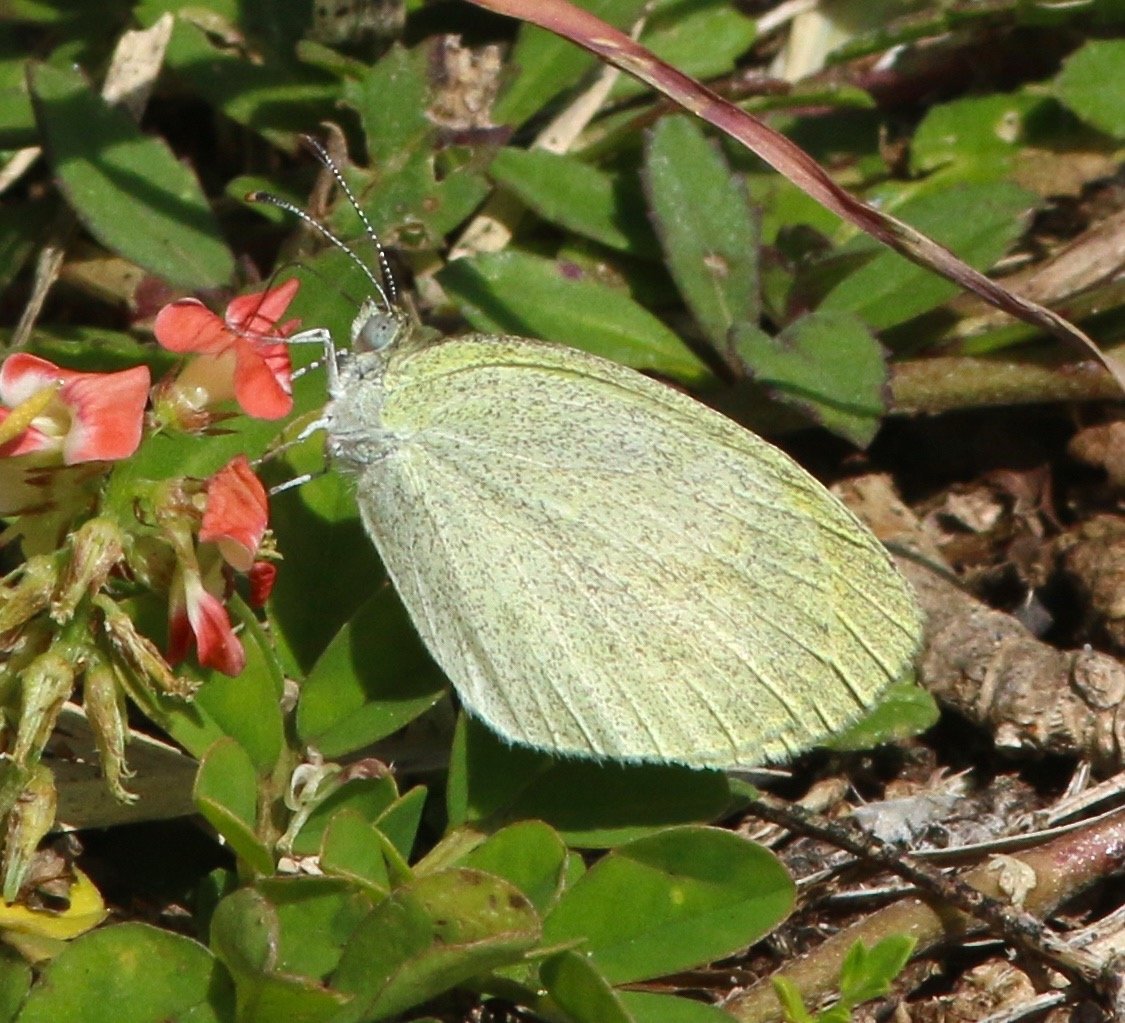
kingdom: Animalia
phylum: Arthropoda
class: Insecta
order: Lepidoptera
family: Pieridae
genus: Eurema
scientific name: Eurema daira
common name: Barred Yellow
